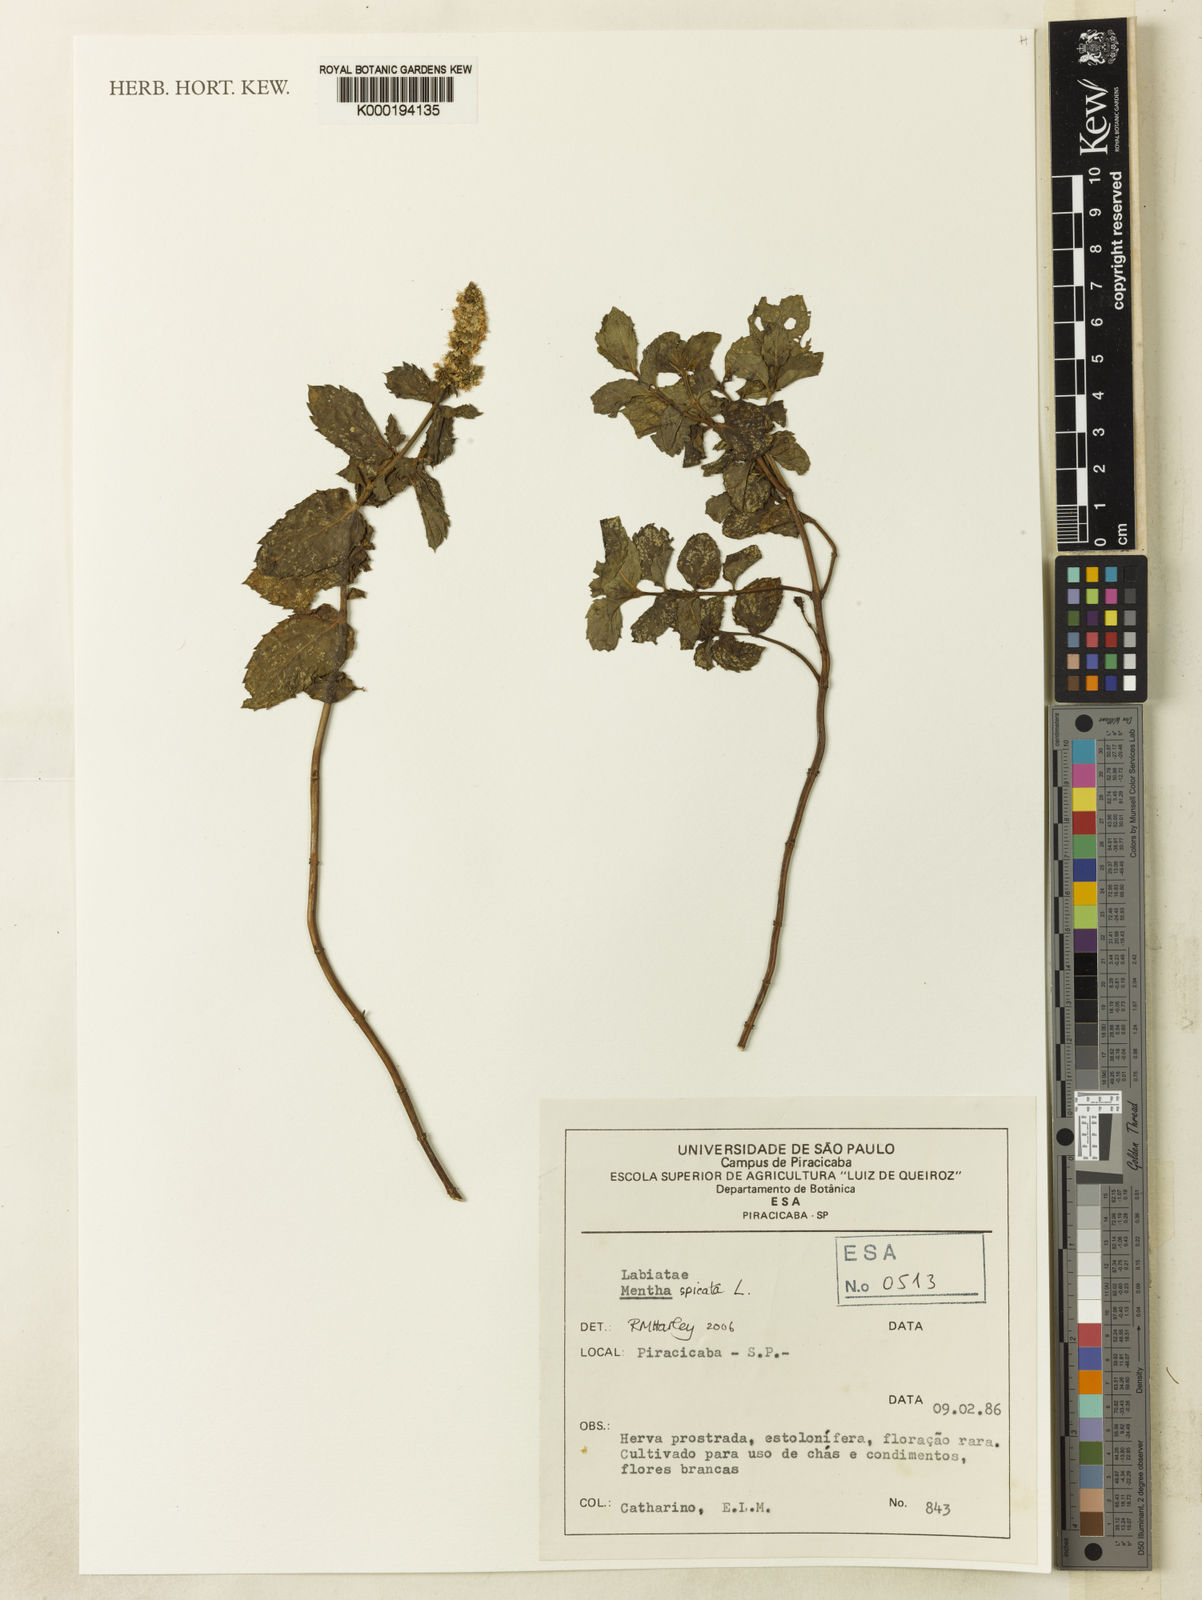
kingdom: Plantae
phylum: Tracheophyta
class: Magnoliopsida
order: Lamiales
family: Lamiaceae
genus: Mentha
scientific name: Mentha spicata
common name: Spearmint
